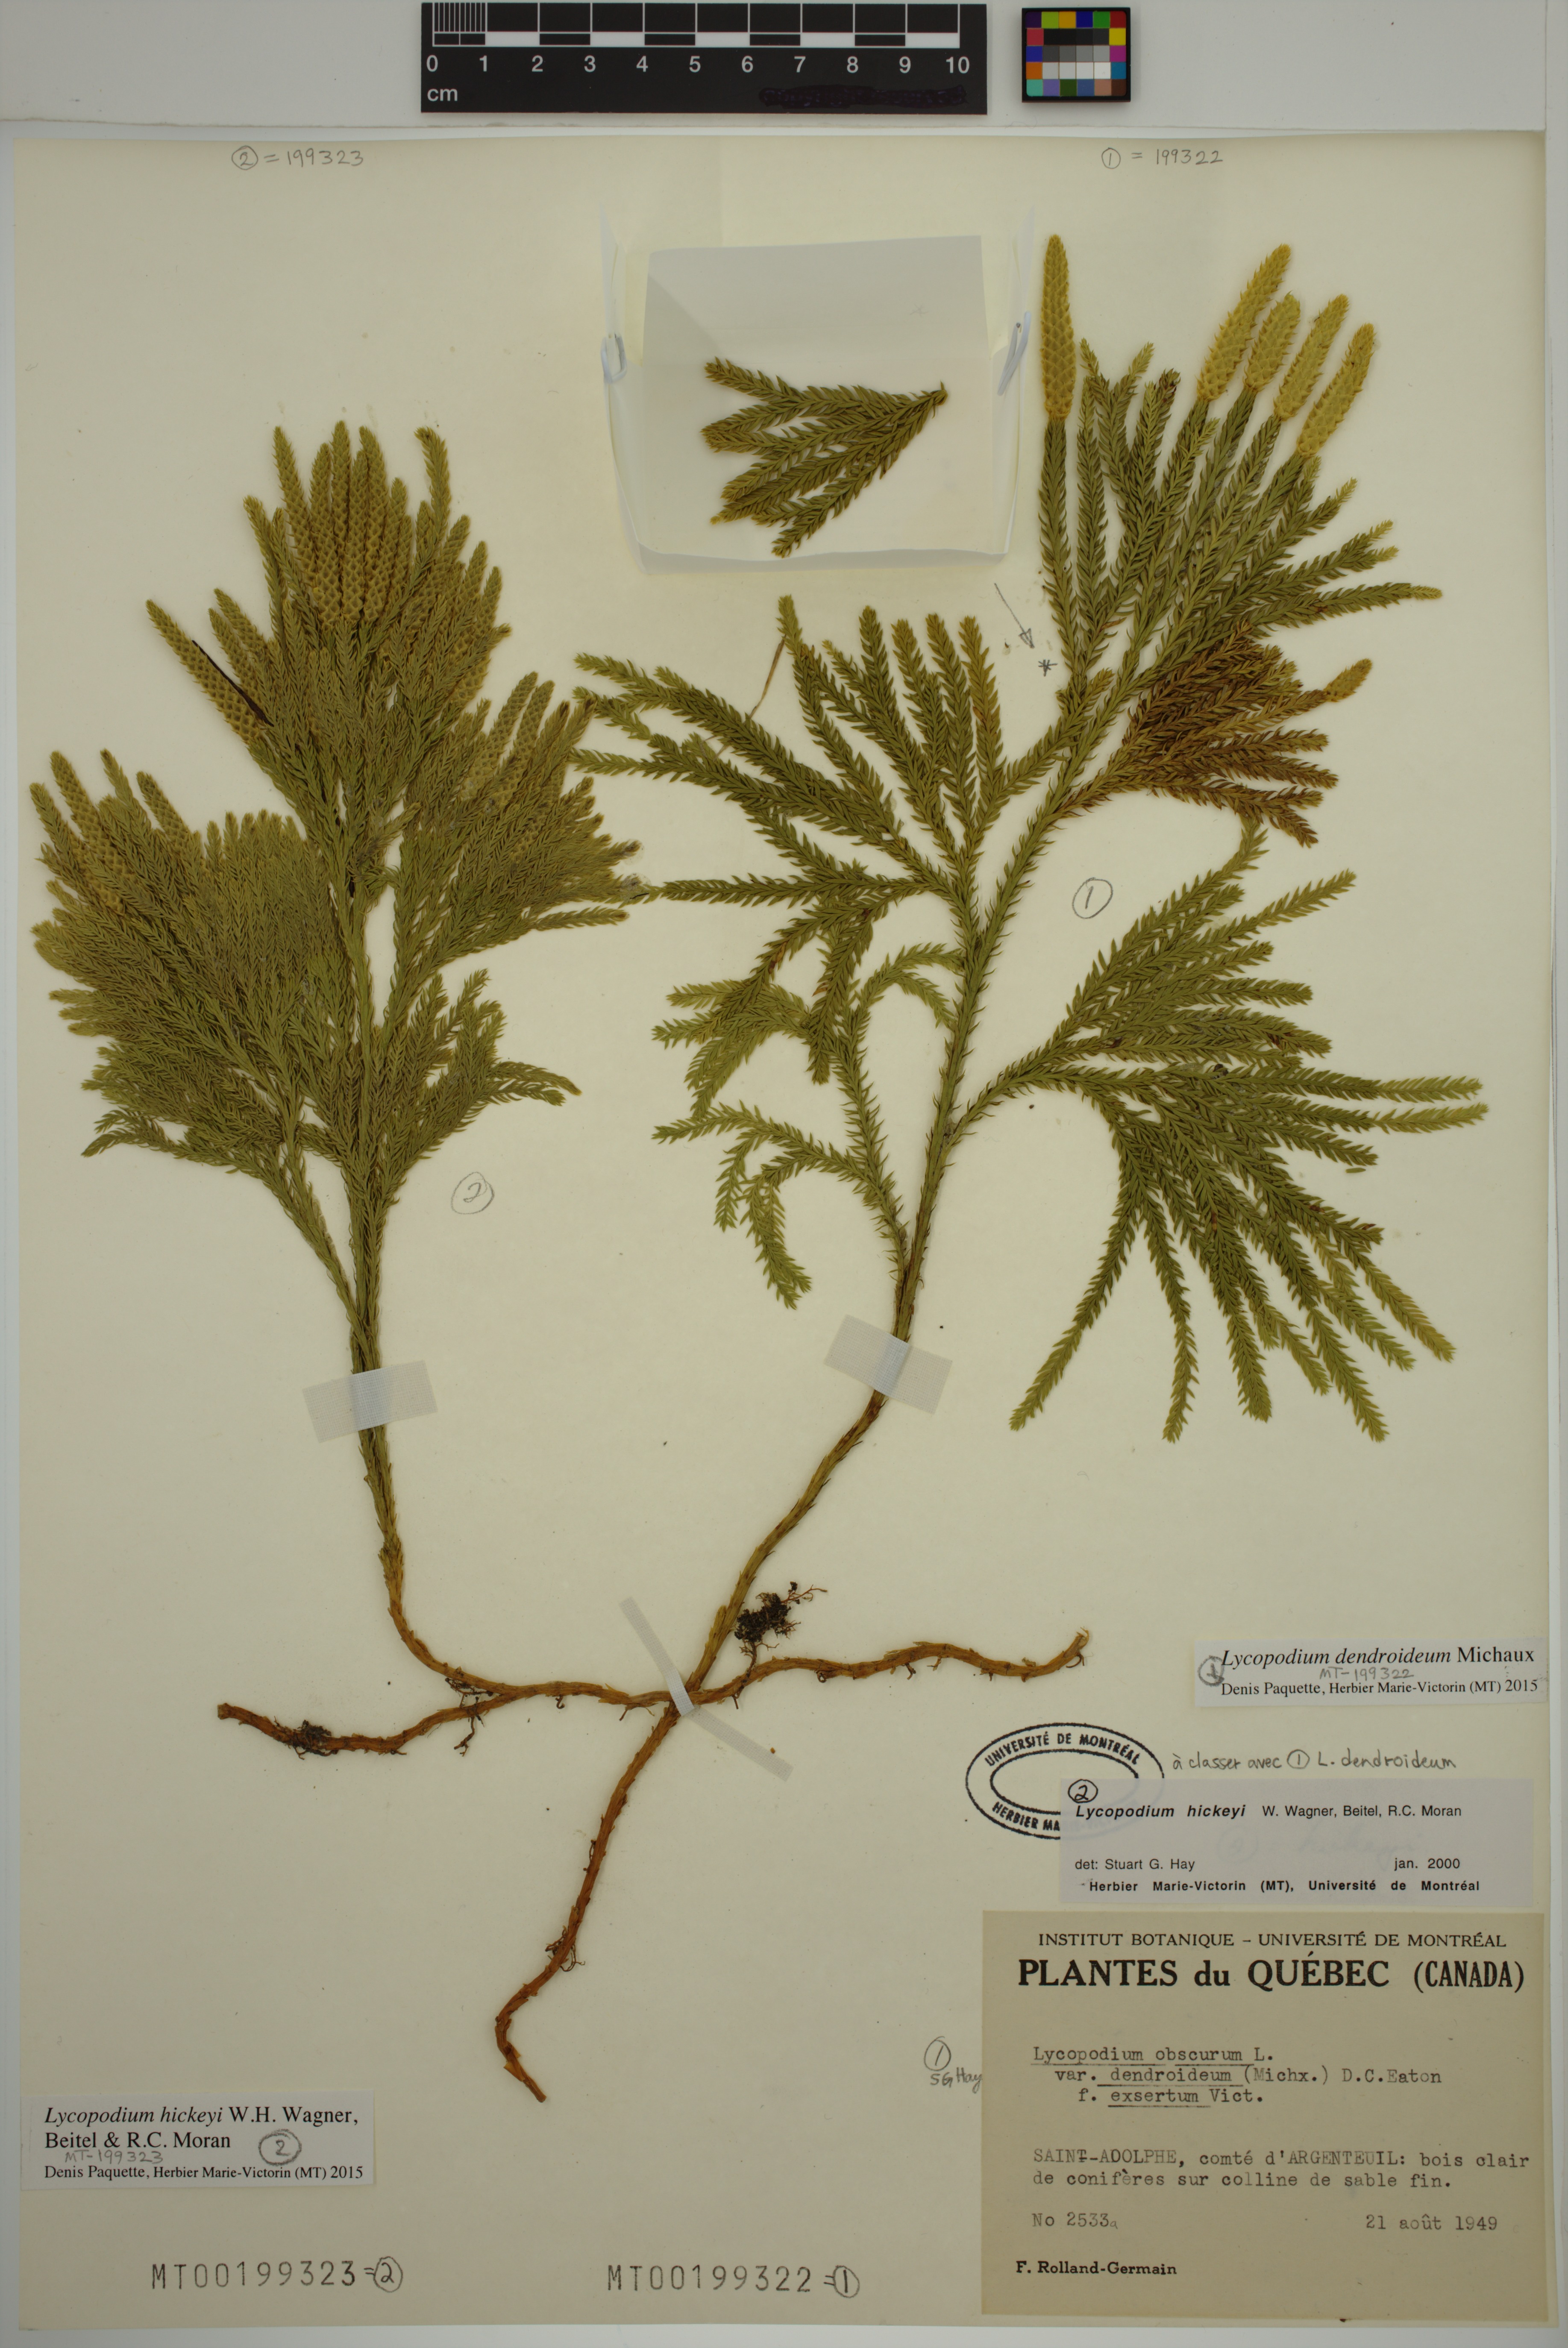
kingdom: Plantae
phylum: Tracheophyta
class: Lycopodiopsida
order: Lycopodiales
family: Lycopodiaceae
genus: Dendrolycopodium
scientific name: Dendrolycopodium hickeyi
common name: Hickey's clubmoss
